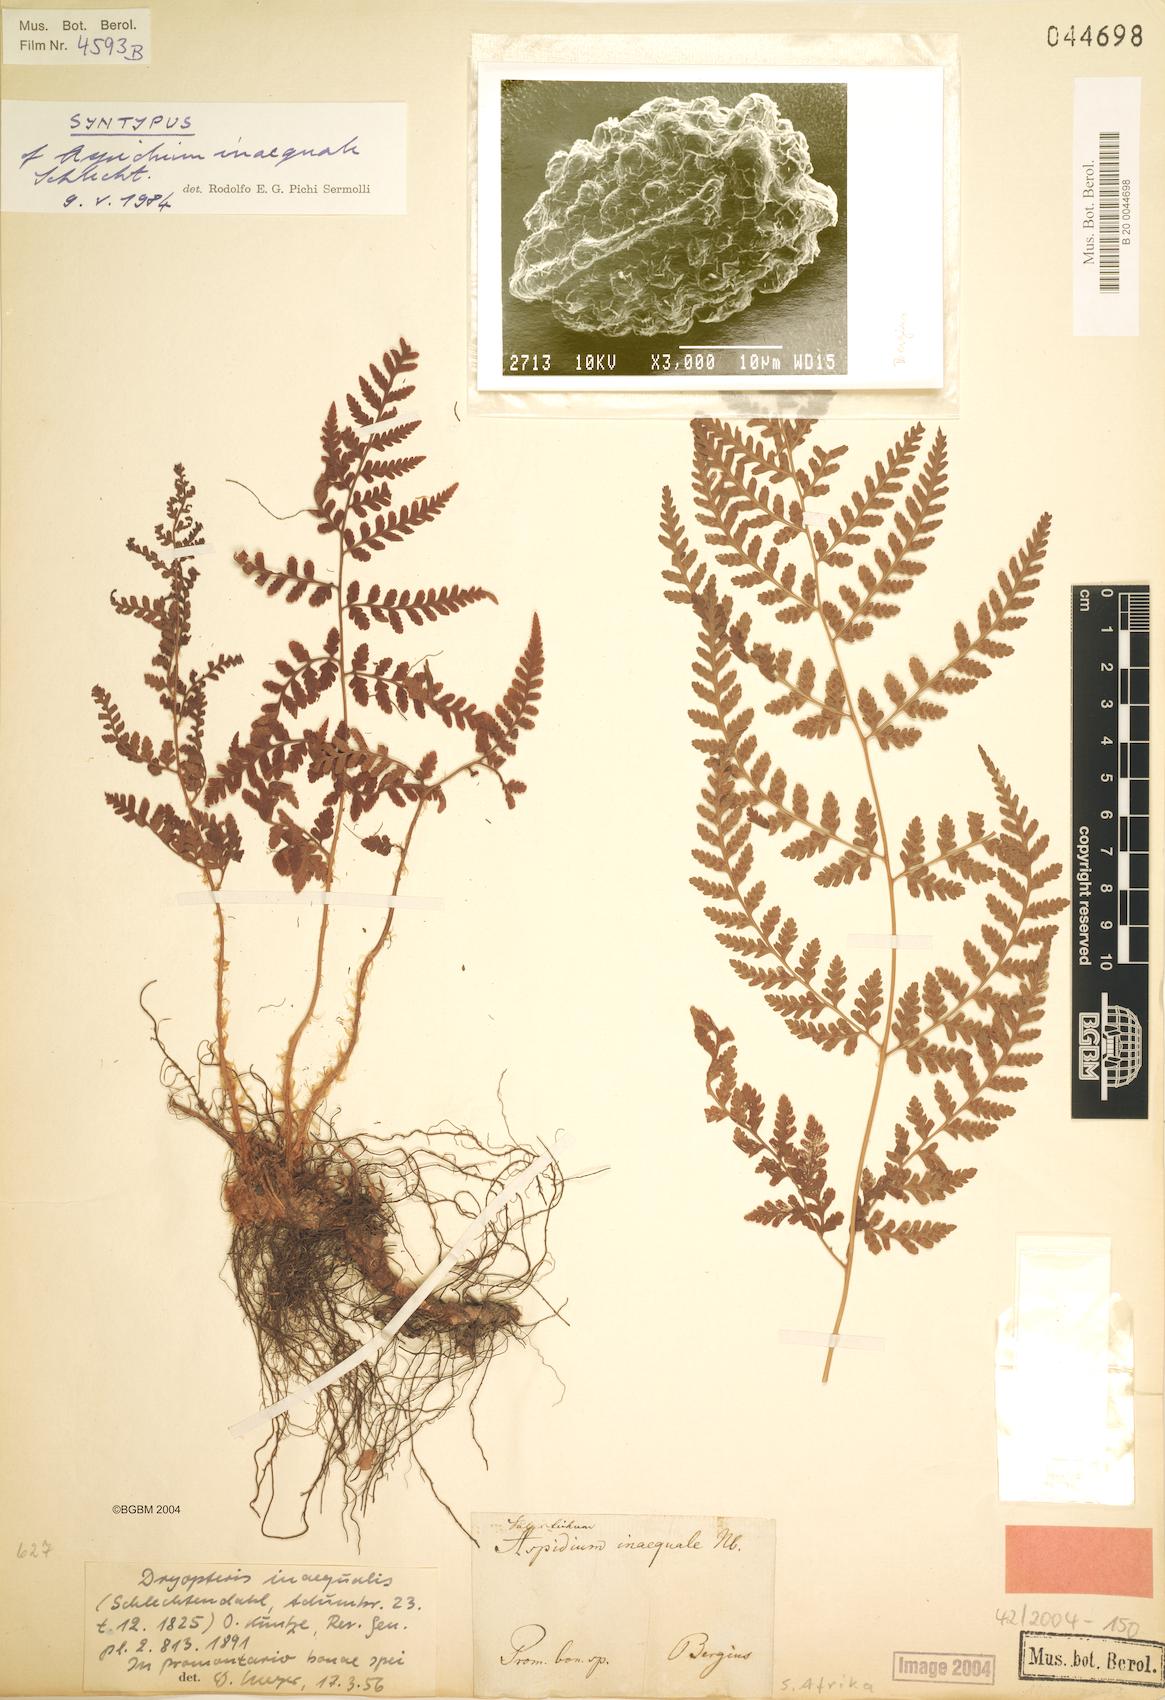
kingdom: Plantae
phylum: Tracheophyta
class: Polypodiopsida
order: Polypodiales
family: Dryopteridaceae
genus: Dryopteris
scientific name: Dryopteris inaequalis
